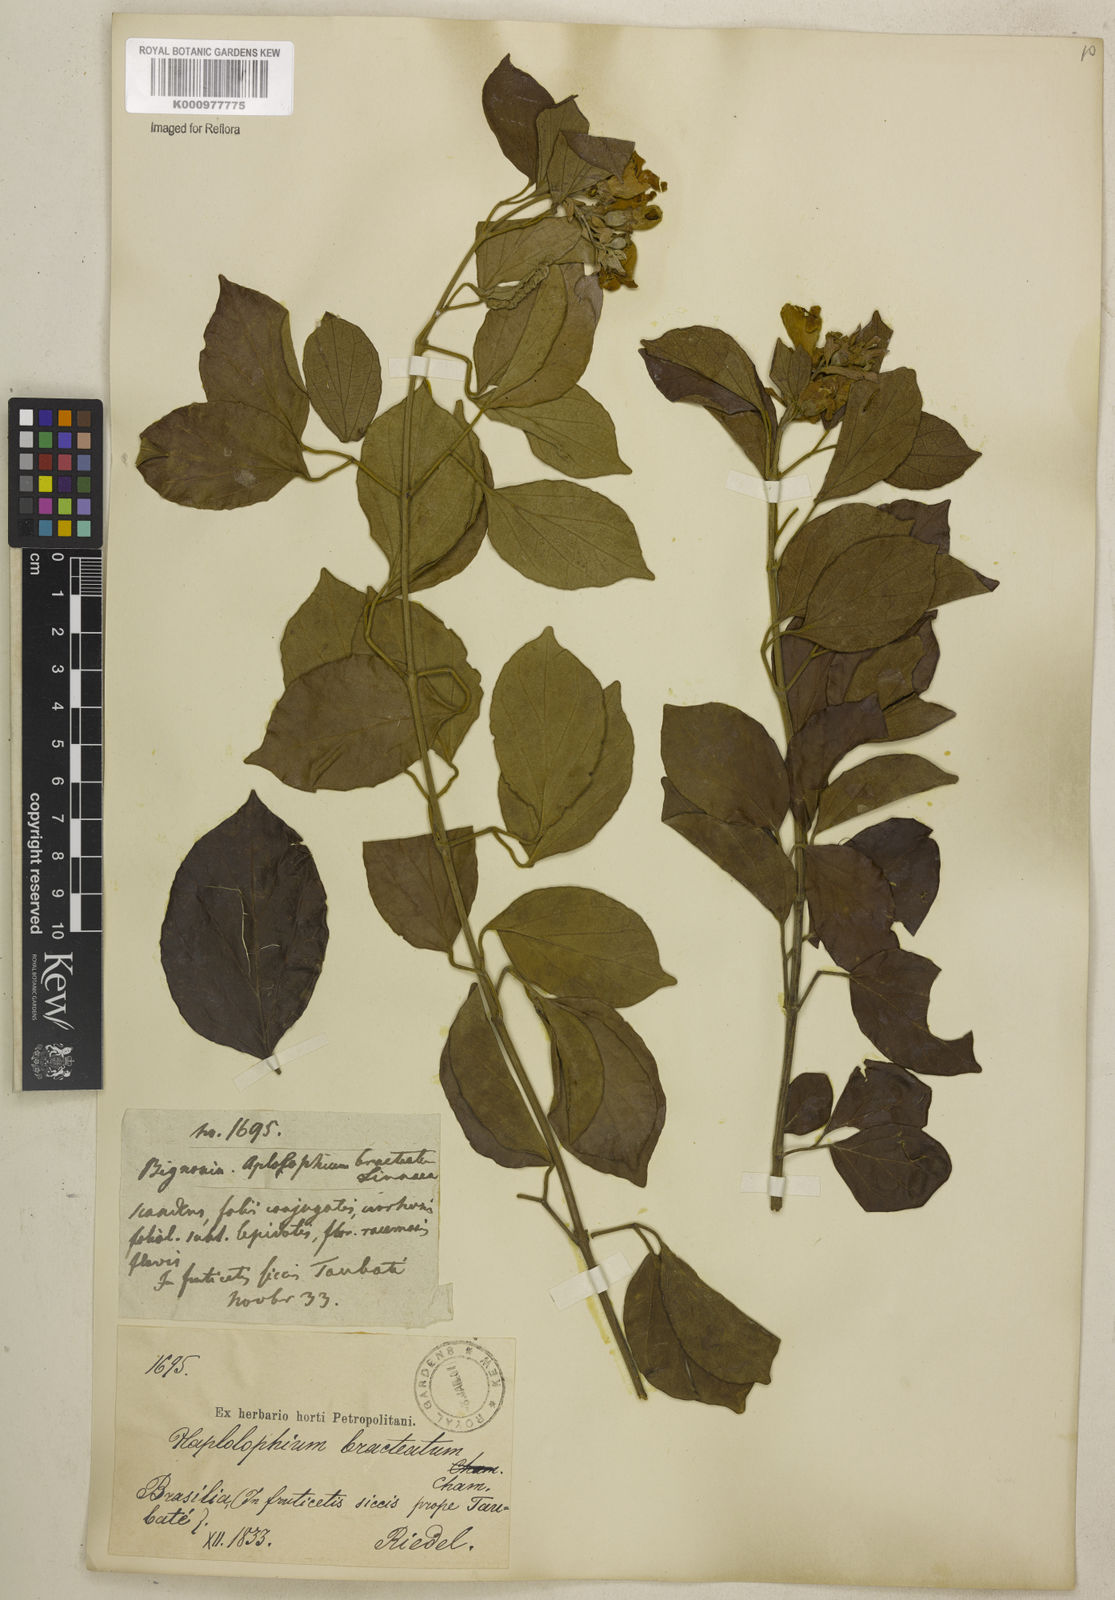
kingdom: Plantae
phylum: Tracheophyta
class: Magnoliopsida
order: Lamiales
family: Bignoniaceae
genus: Amphilophium
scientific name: Amphilophium bracteatum
